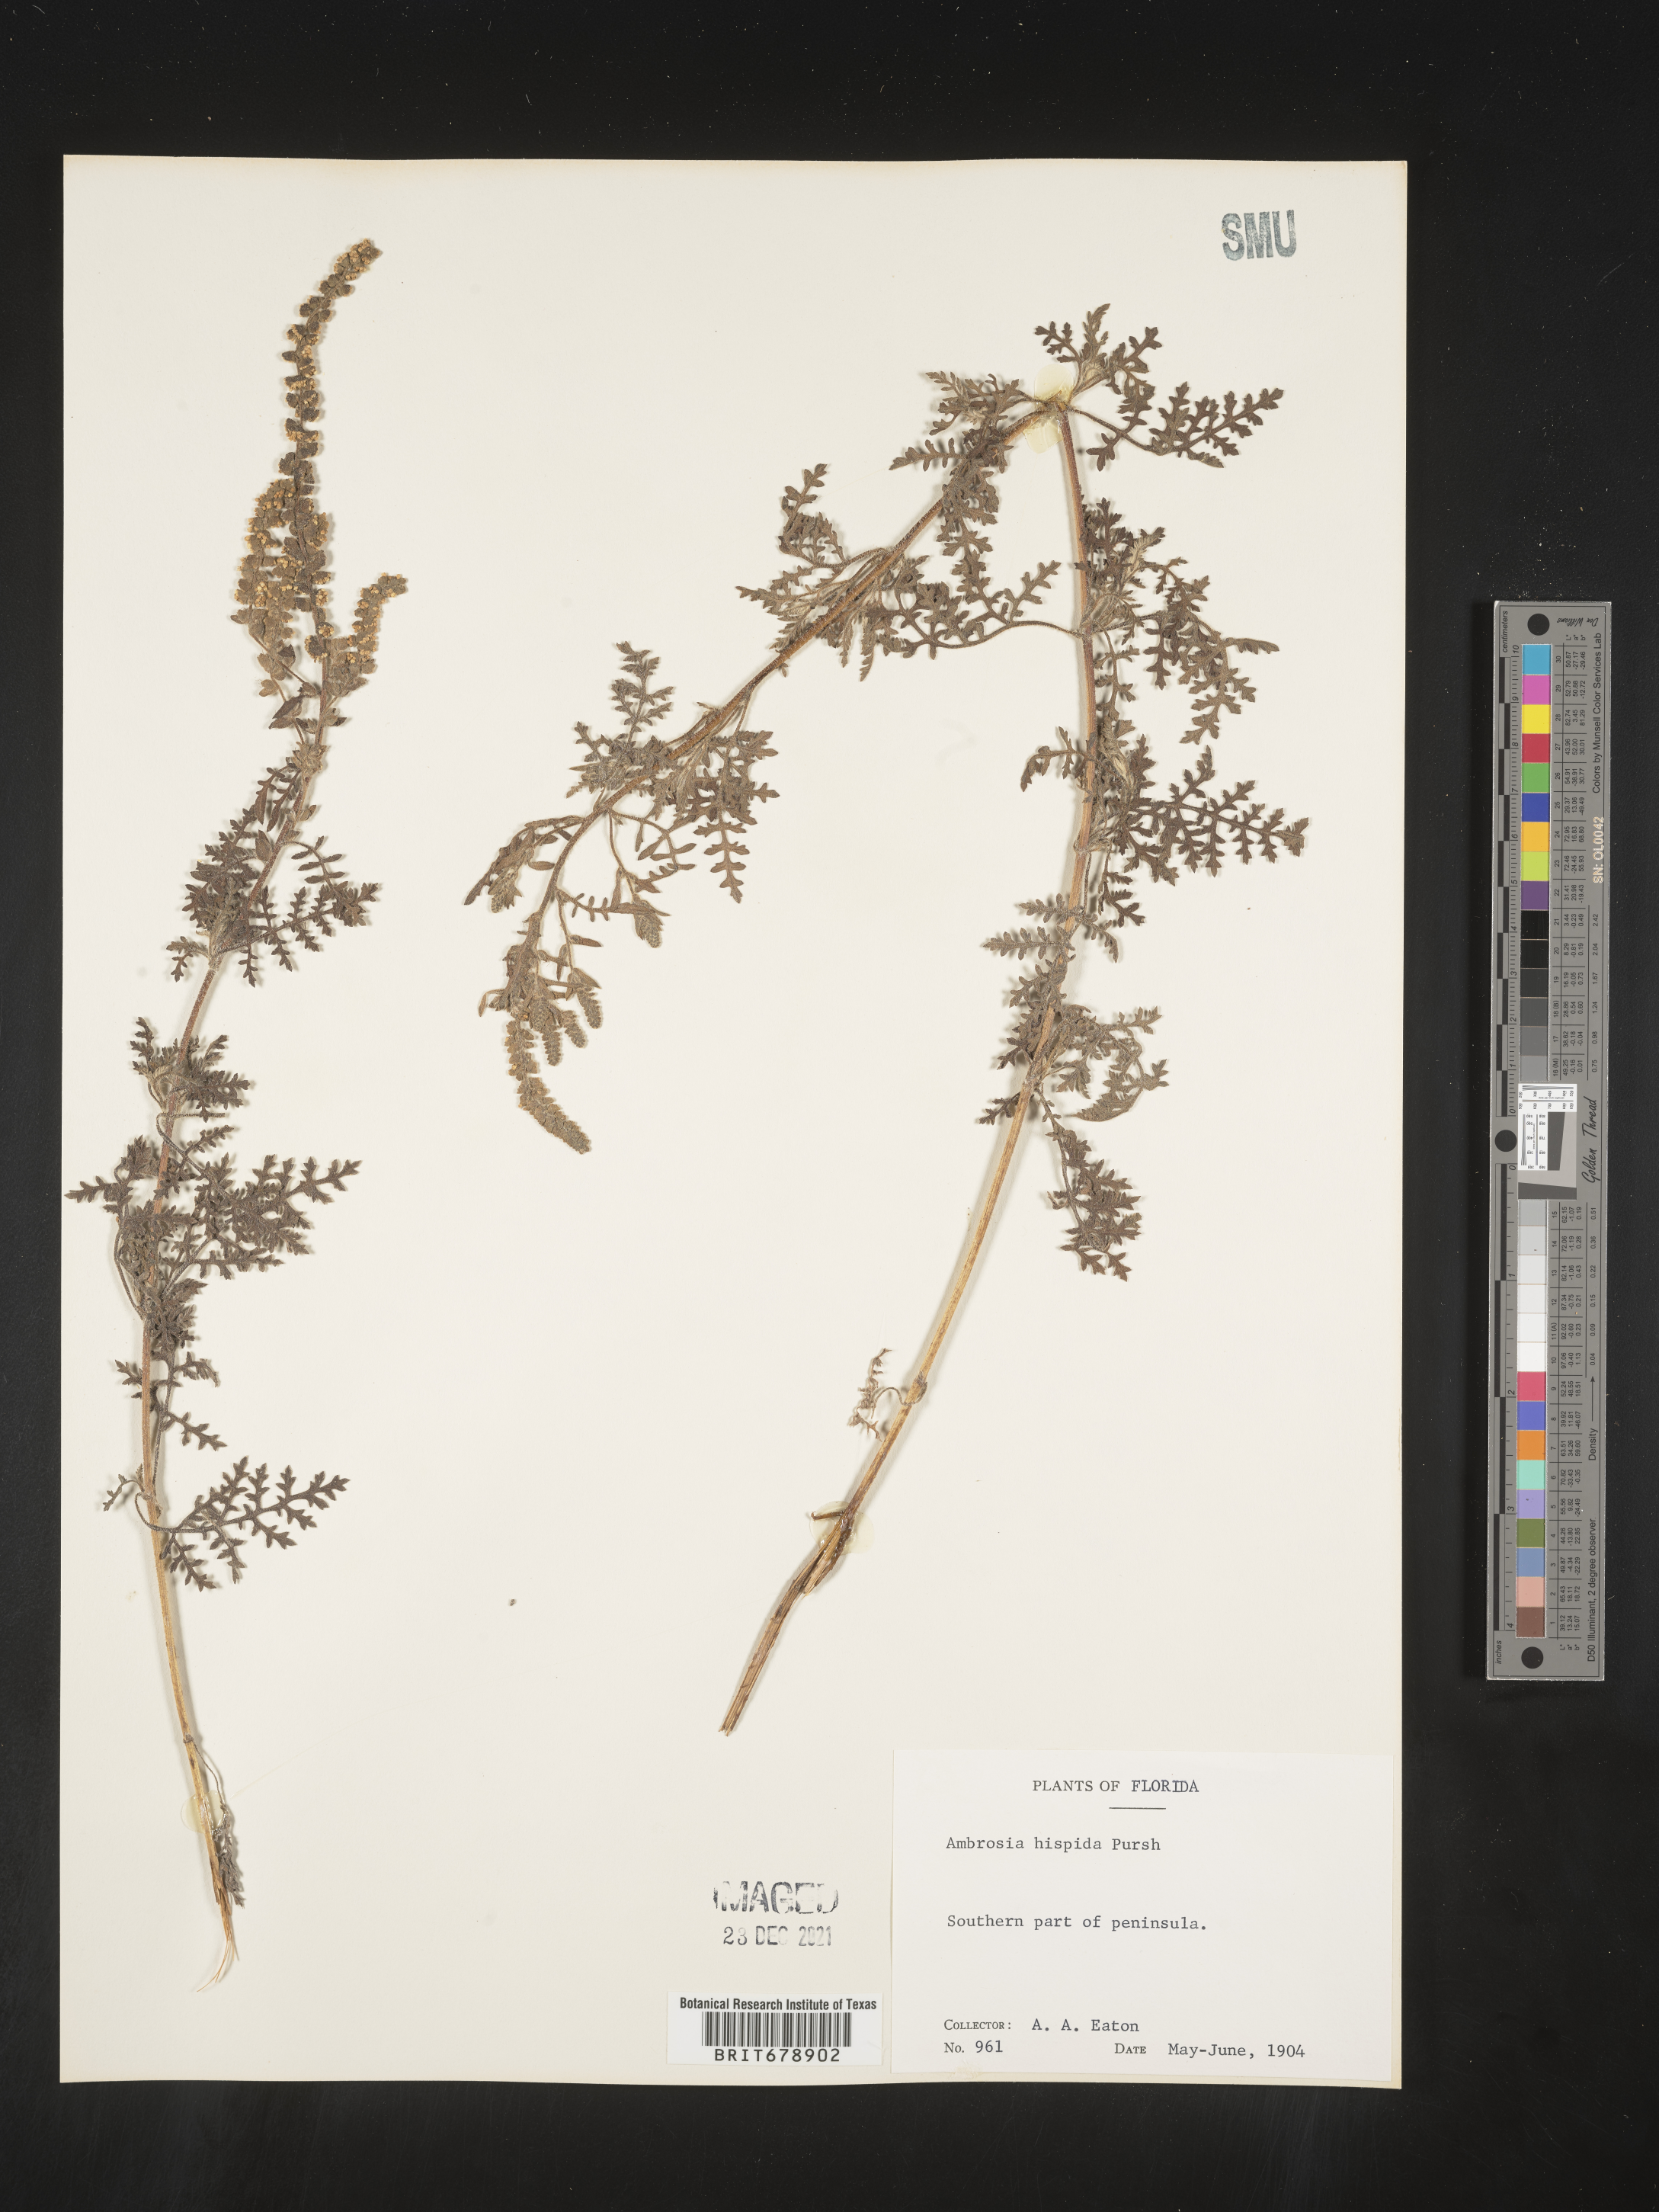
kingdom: Plantae
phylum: Tracheophyta
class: Magnoliopsida
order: Asterales
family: Asteraceae
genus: Ambrosia
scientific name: Ambrosia hispida
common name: Coastal ragweed
